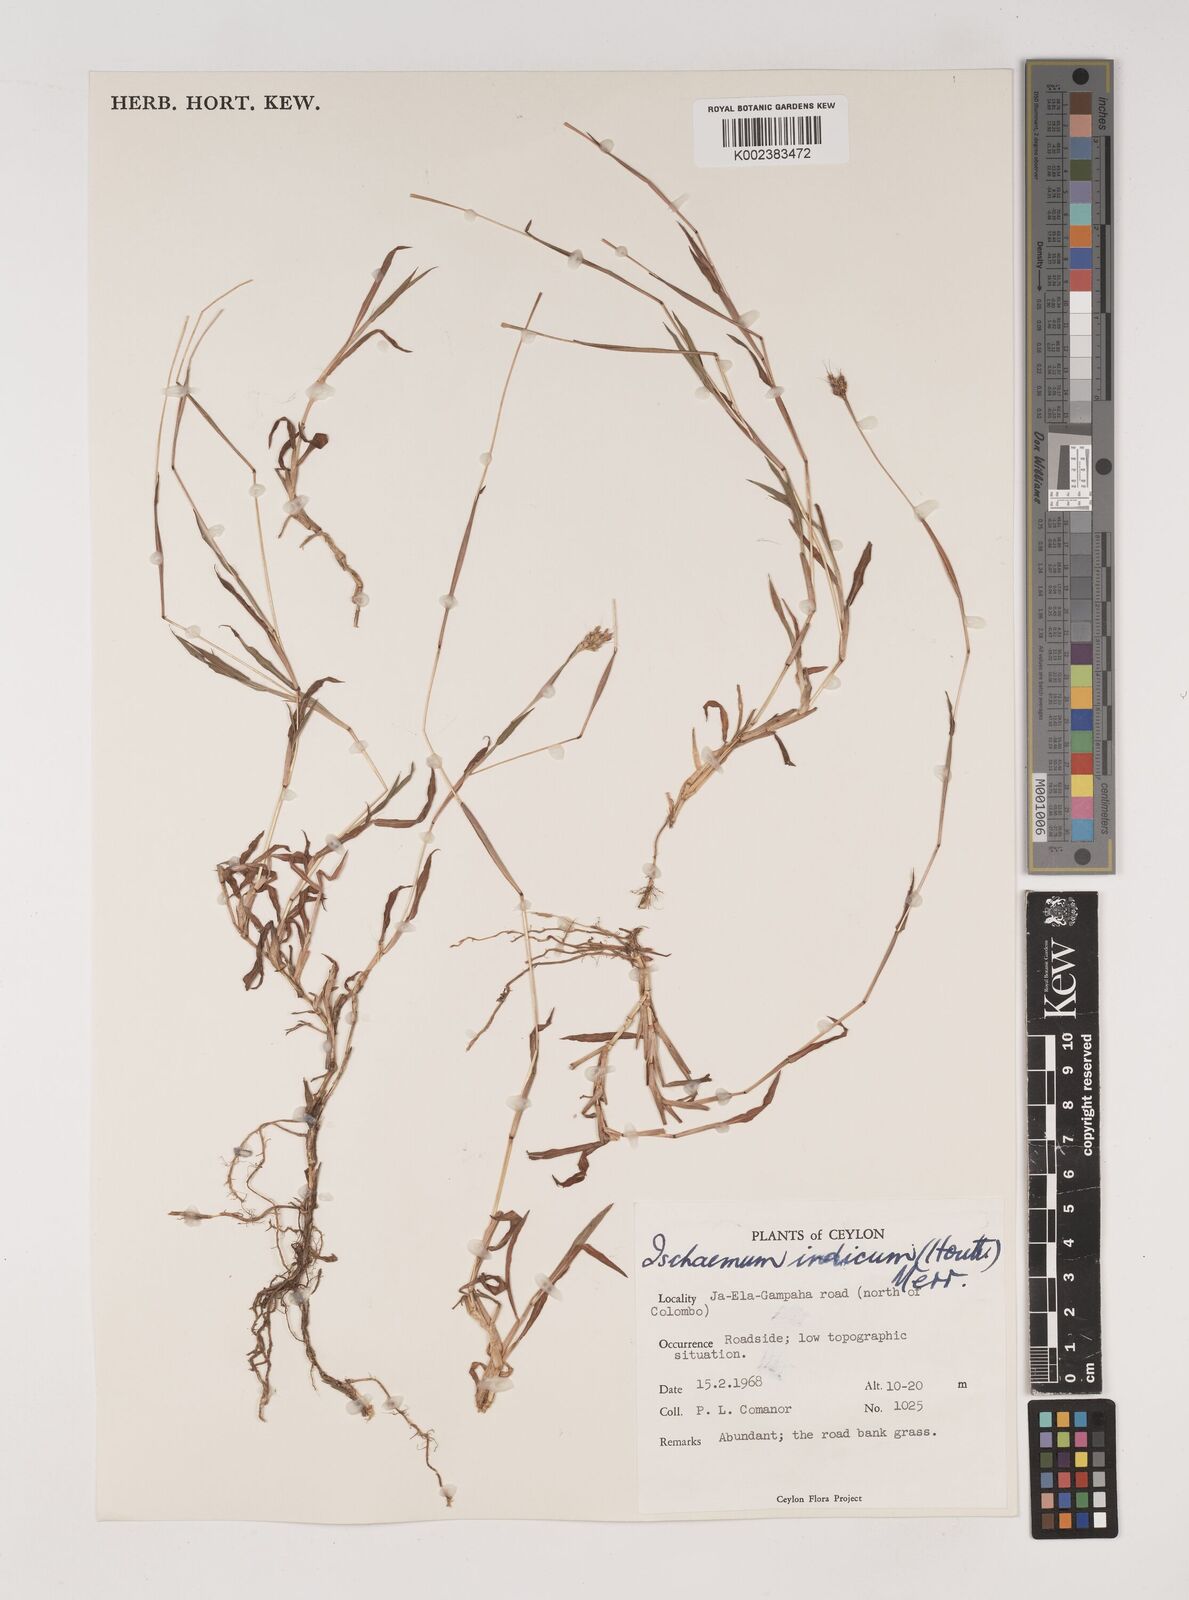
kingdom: Plantae
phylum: Tracheophyta
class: Liliopsida
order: Poales
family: Poaceae
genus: Polytrias
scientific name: Polytrias indica
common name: Indian murainagrass
